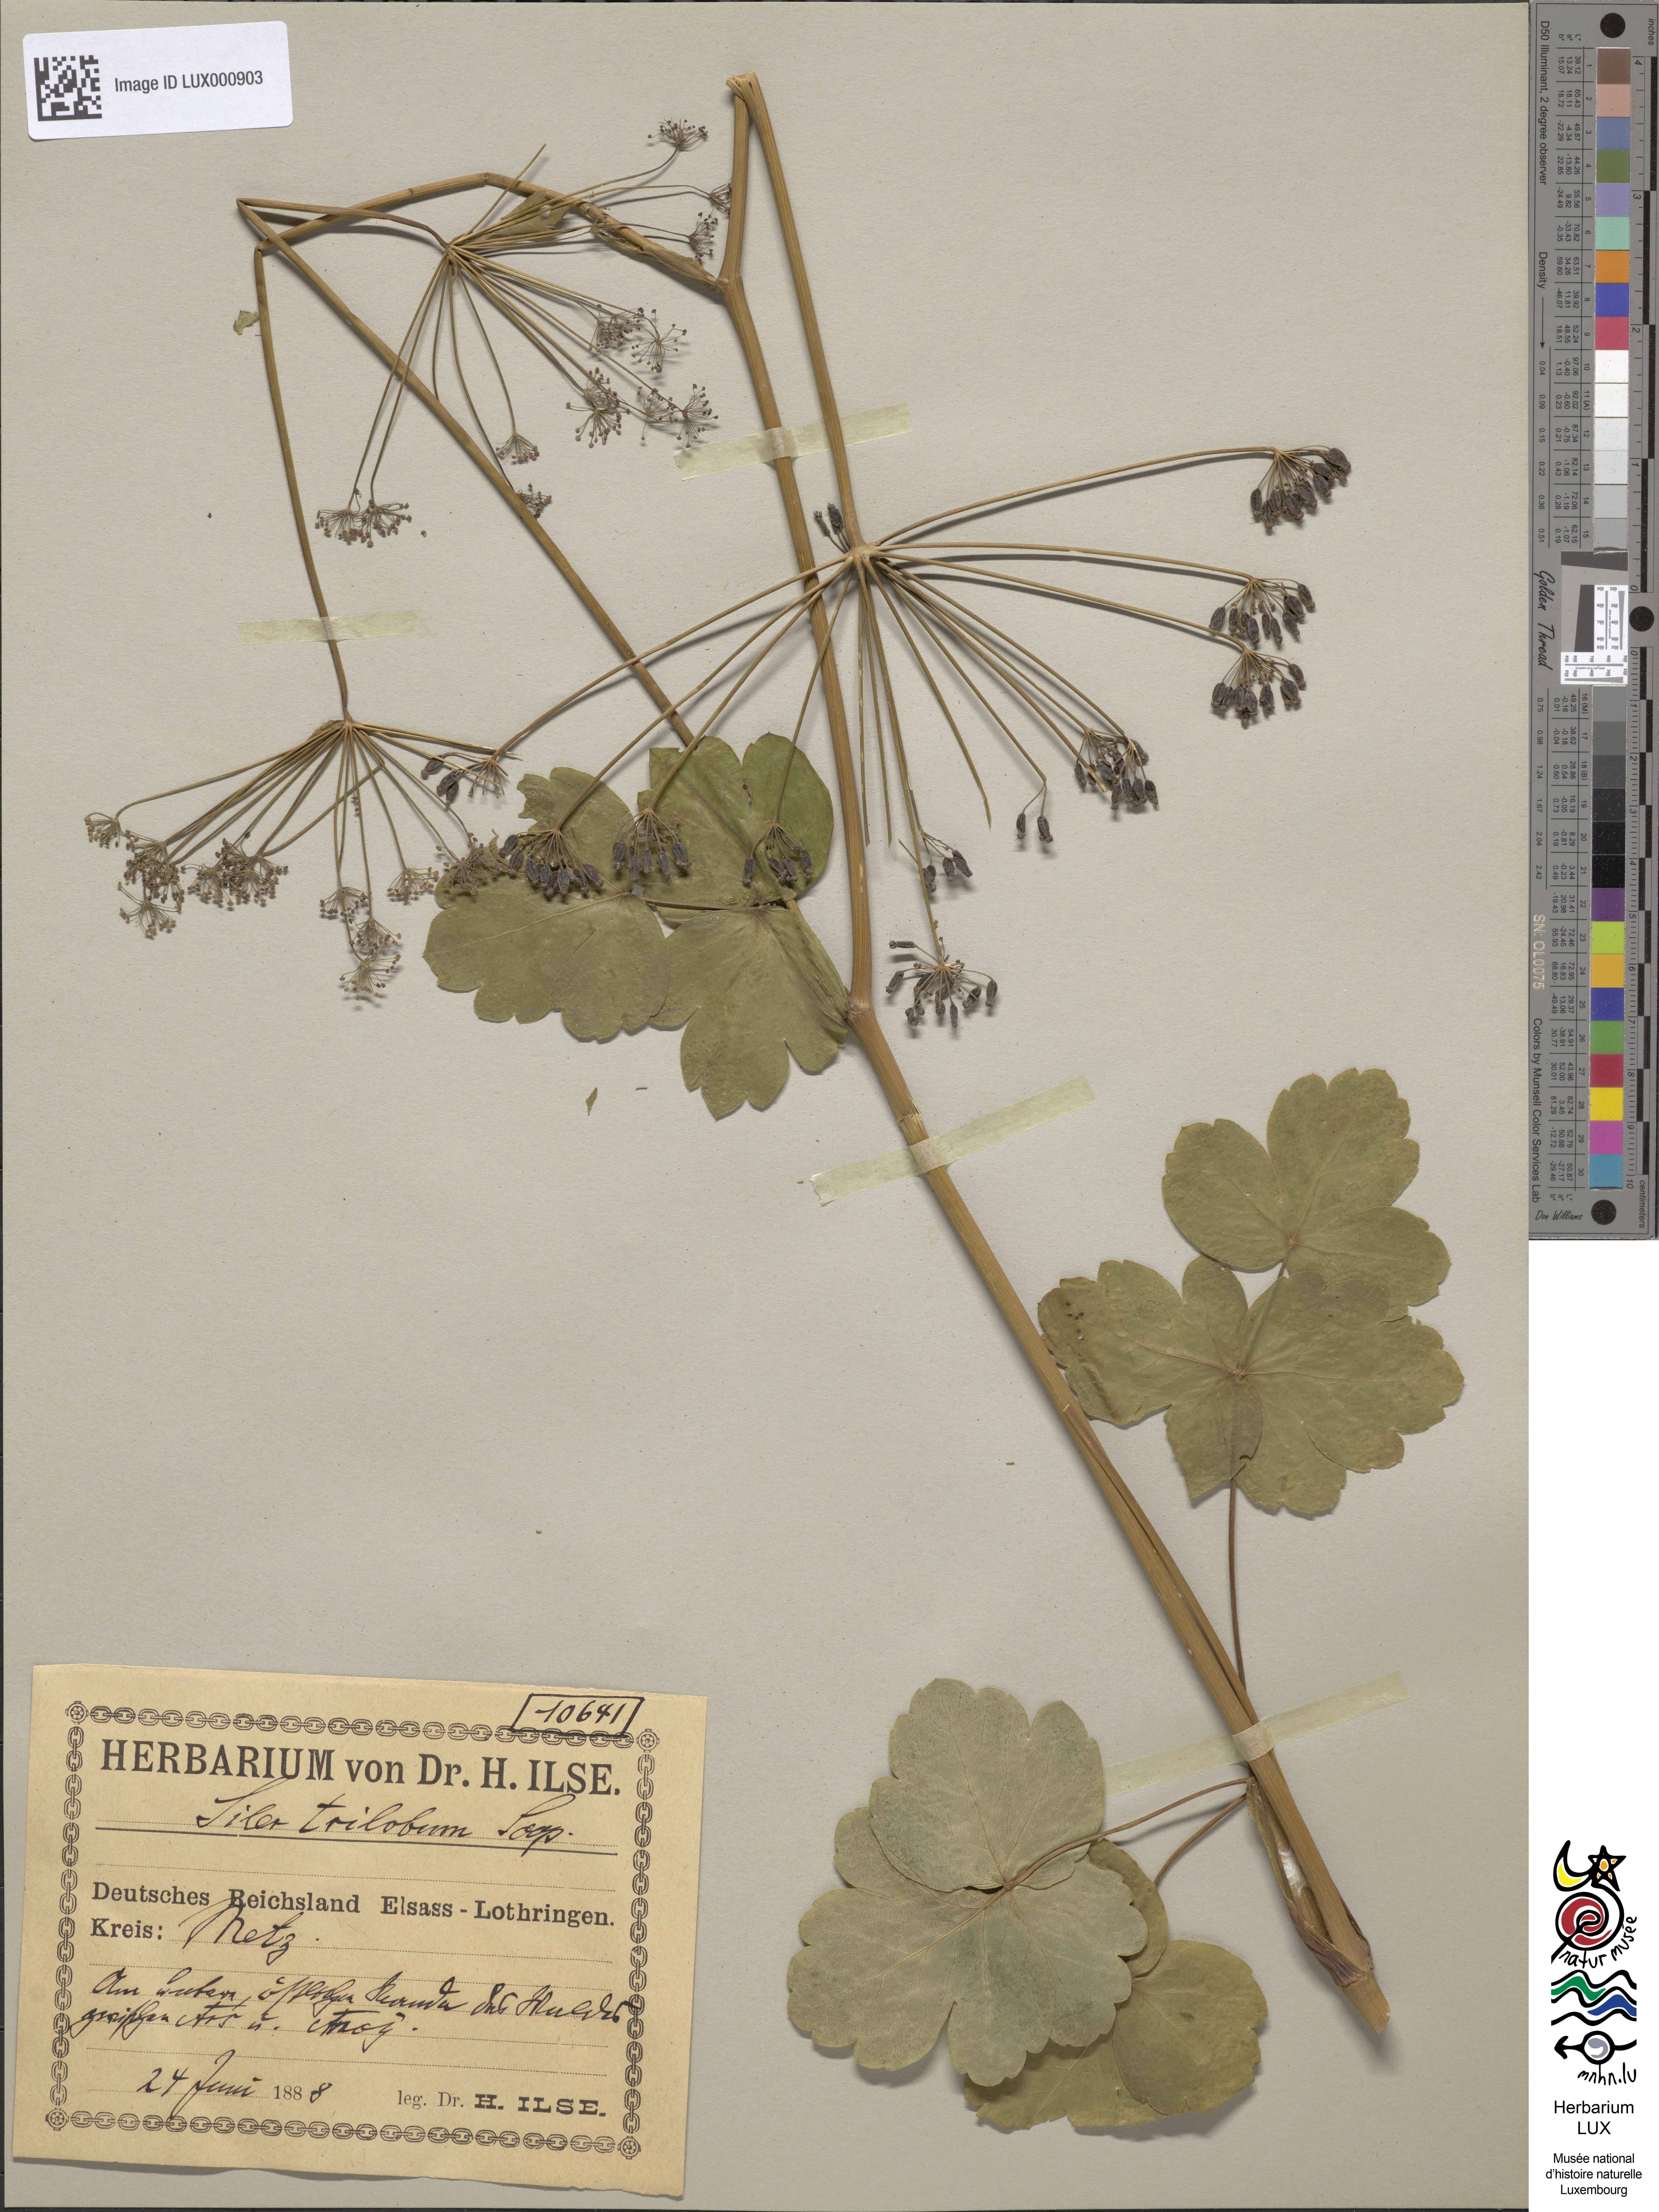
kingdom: Plantae
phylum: Tracheophyta
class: Magnoliopsida
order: Apiales
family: Apiaceae
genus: Laser
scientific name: Laser trilobum
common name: Laser
